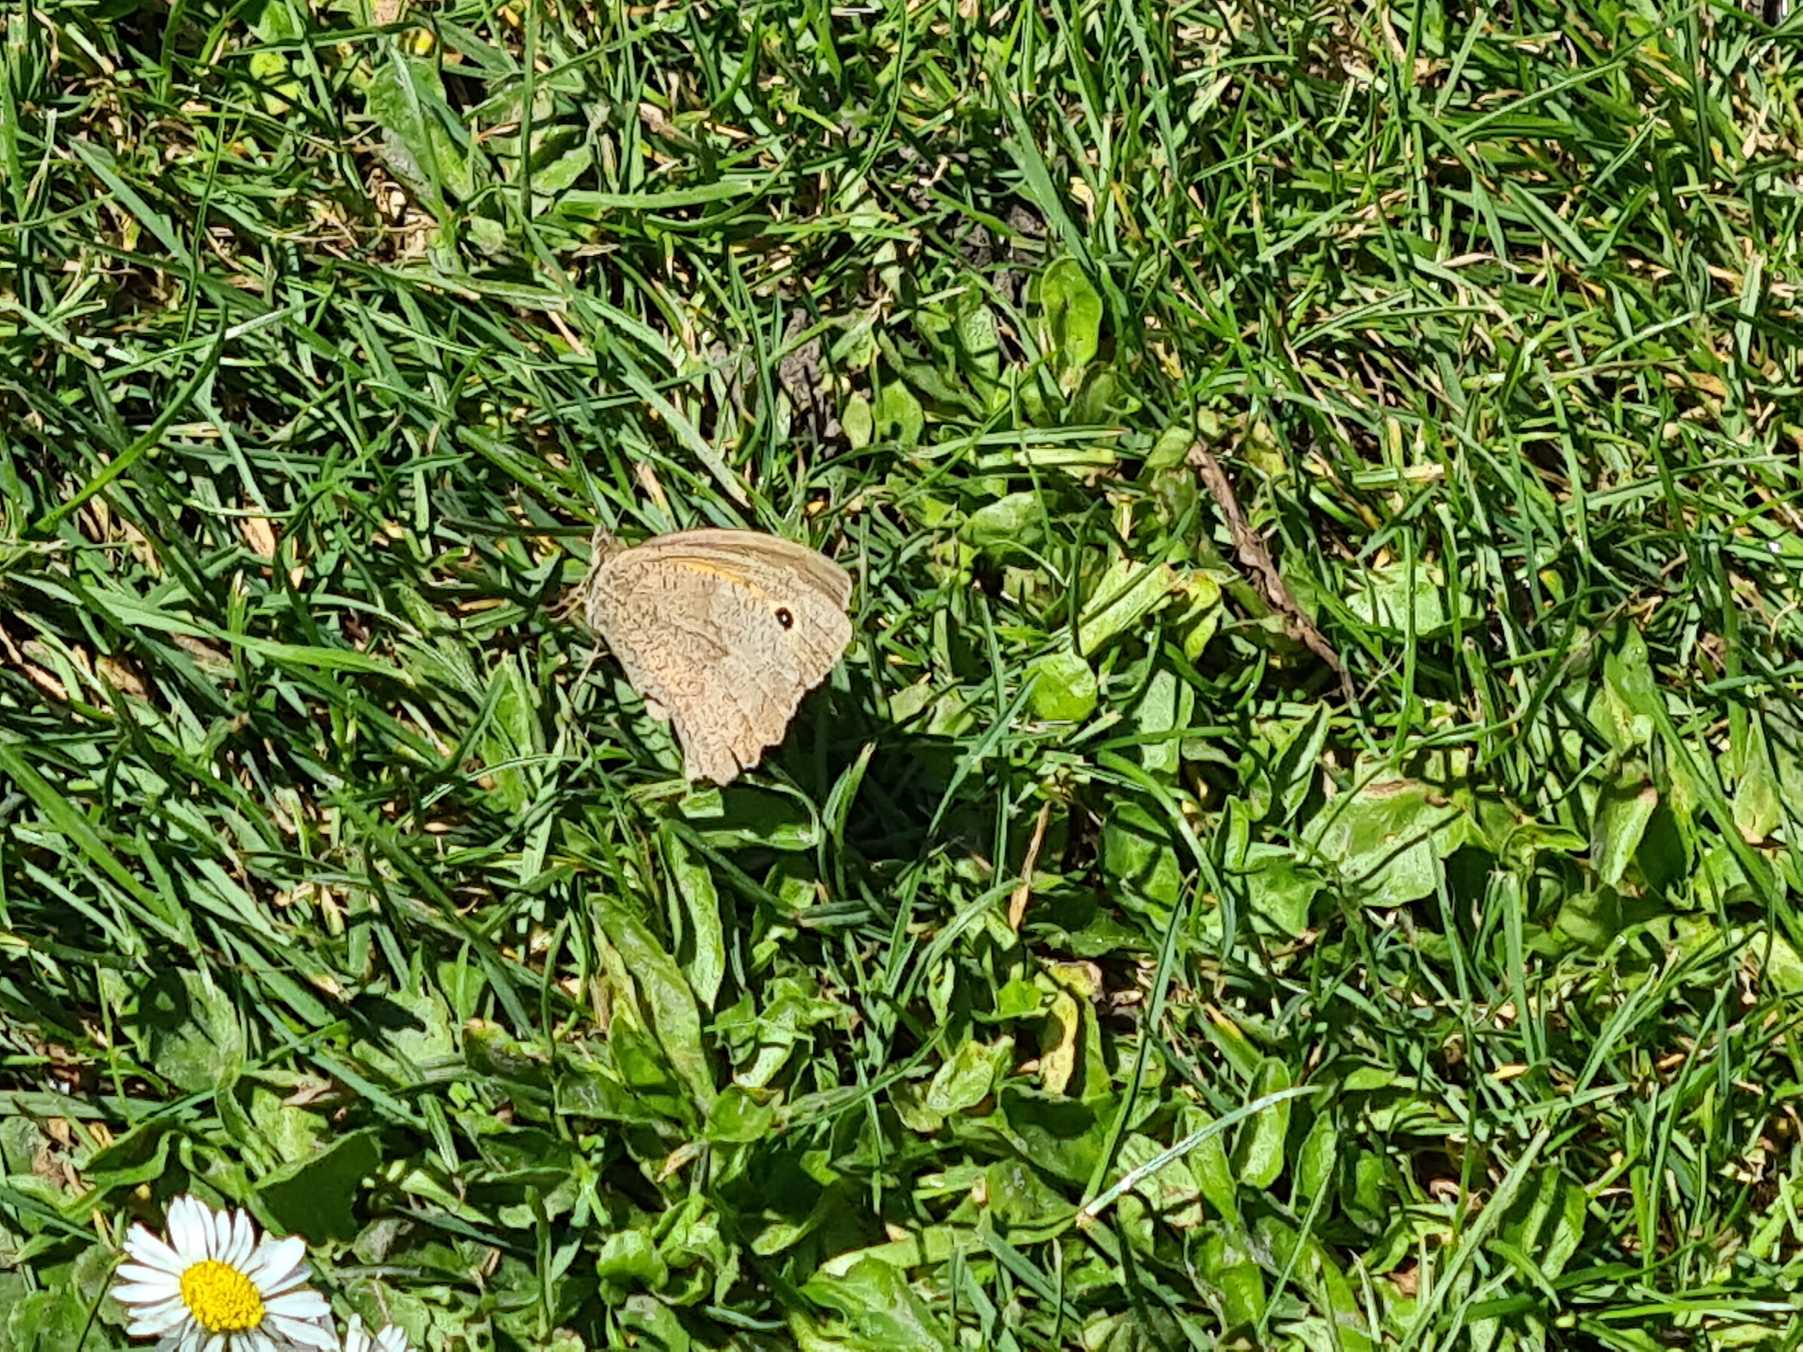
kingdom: Animalia
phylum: Arthropoda
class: Insecta
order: Lepidoptera
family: Nymphalidae
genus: Maniola
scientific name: Maniola jurtina
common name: Græsrandøje
